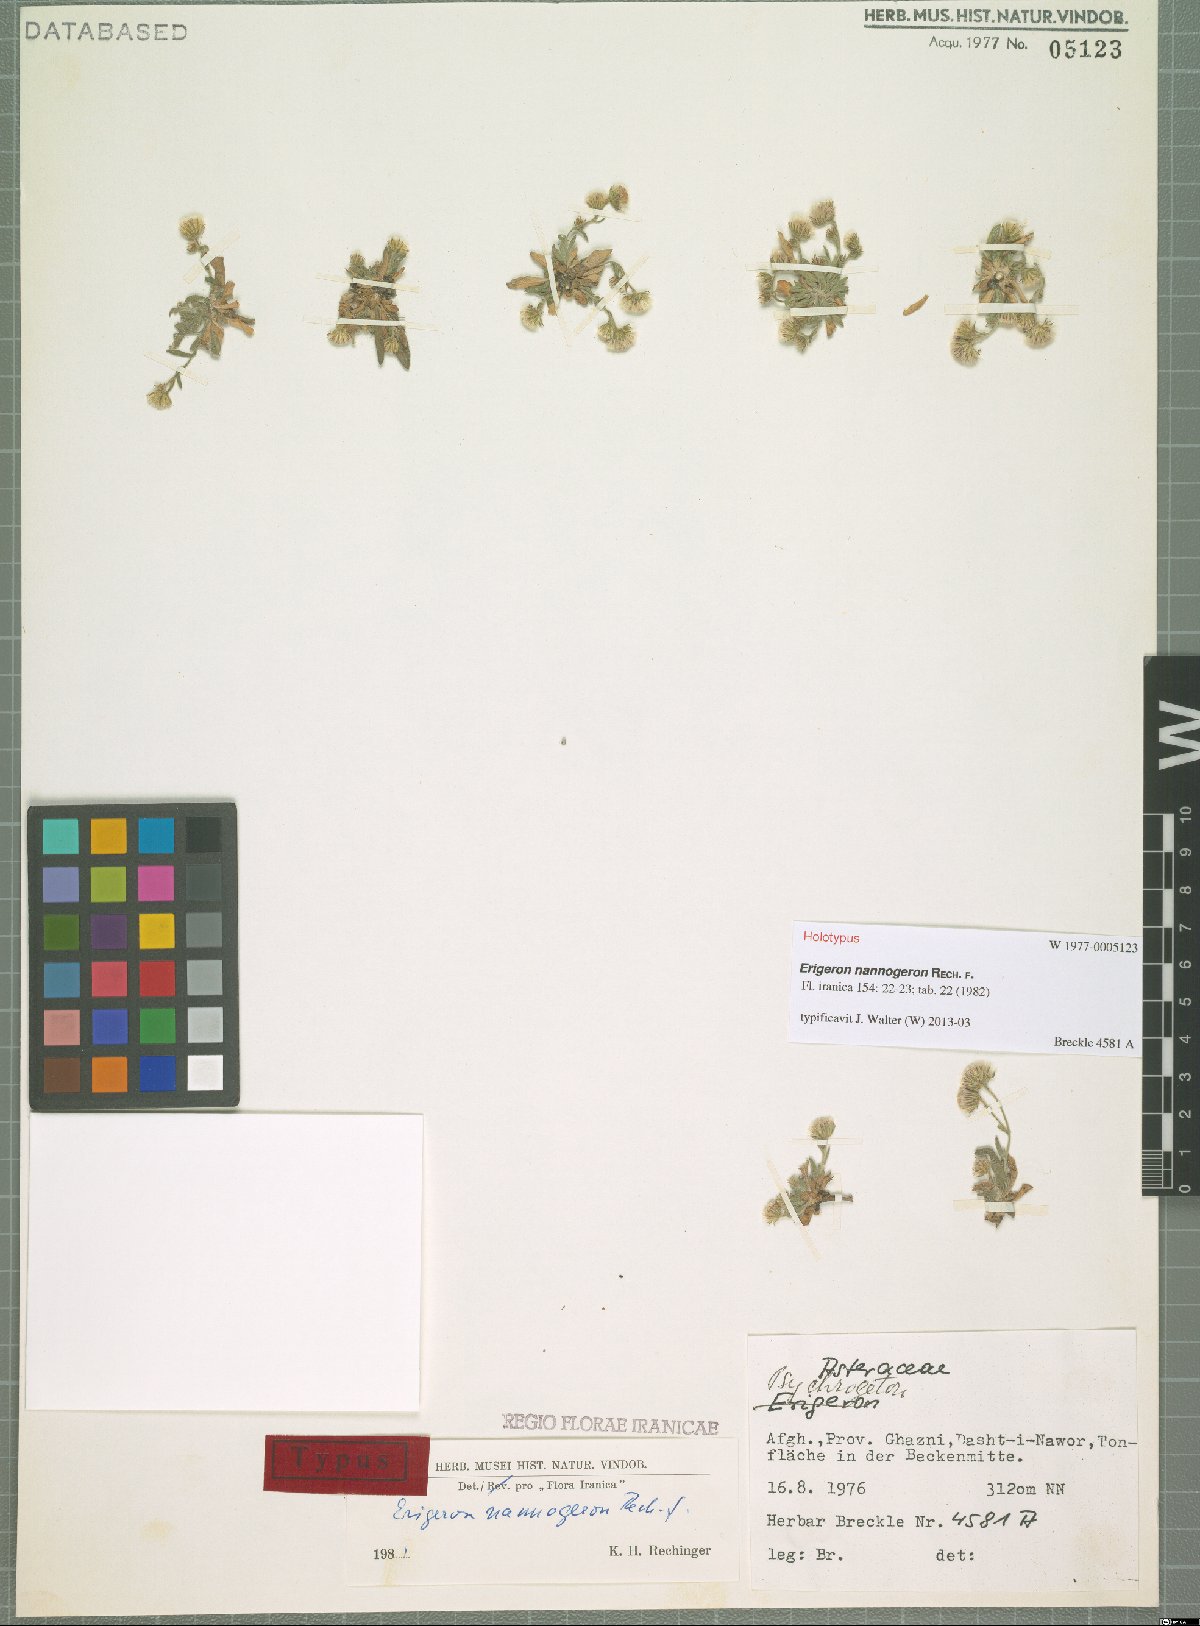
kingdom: Plantae
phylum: Tracheophyta
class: Magnoliopsida
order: Asterales
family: Asteraceae
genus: Erigeron
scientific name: Erigeron nannogeron
